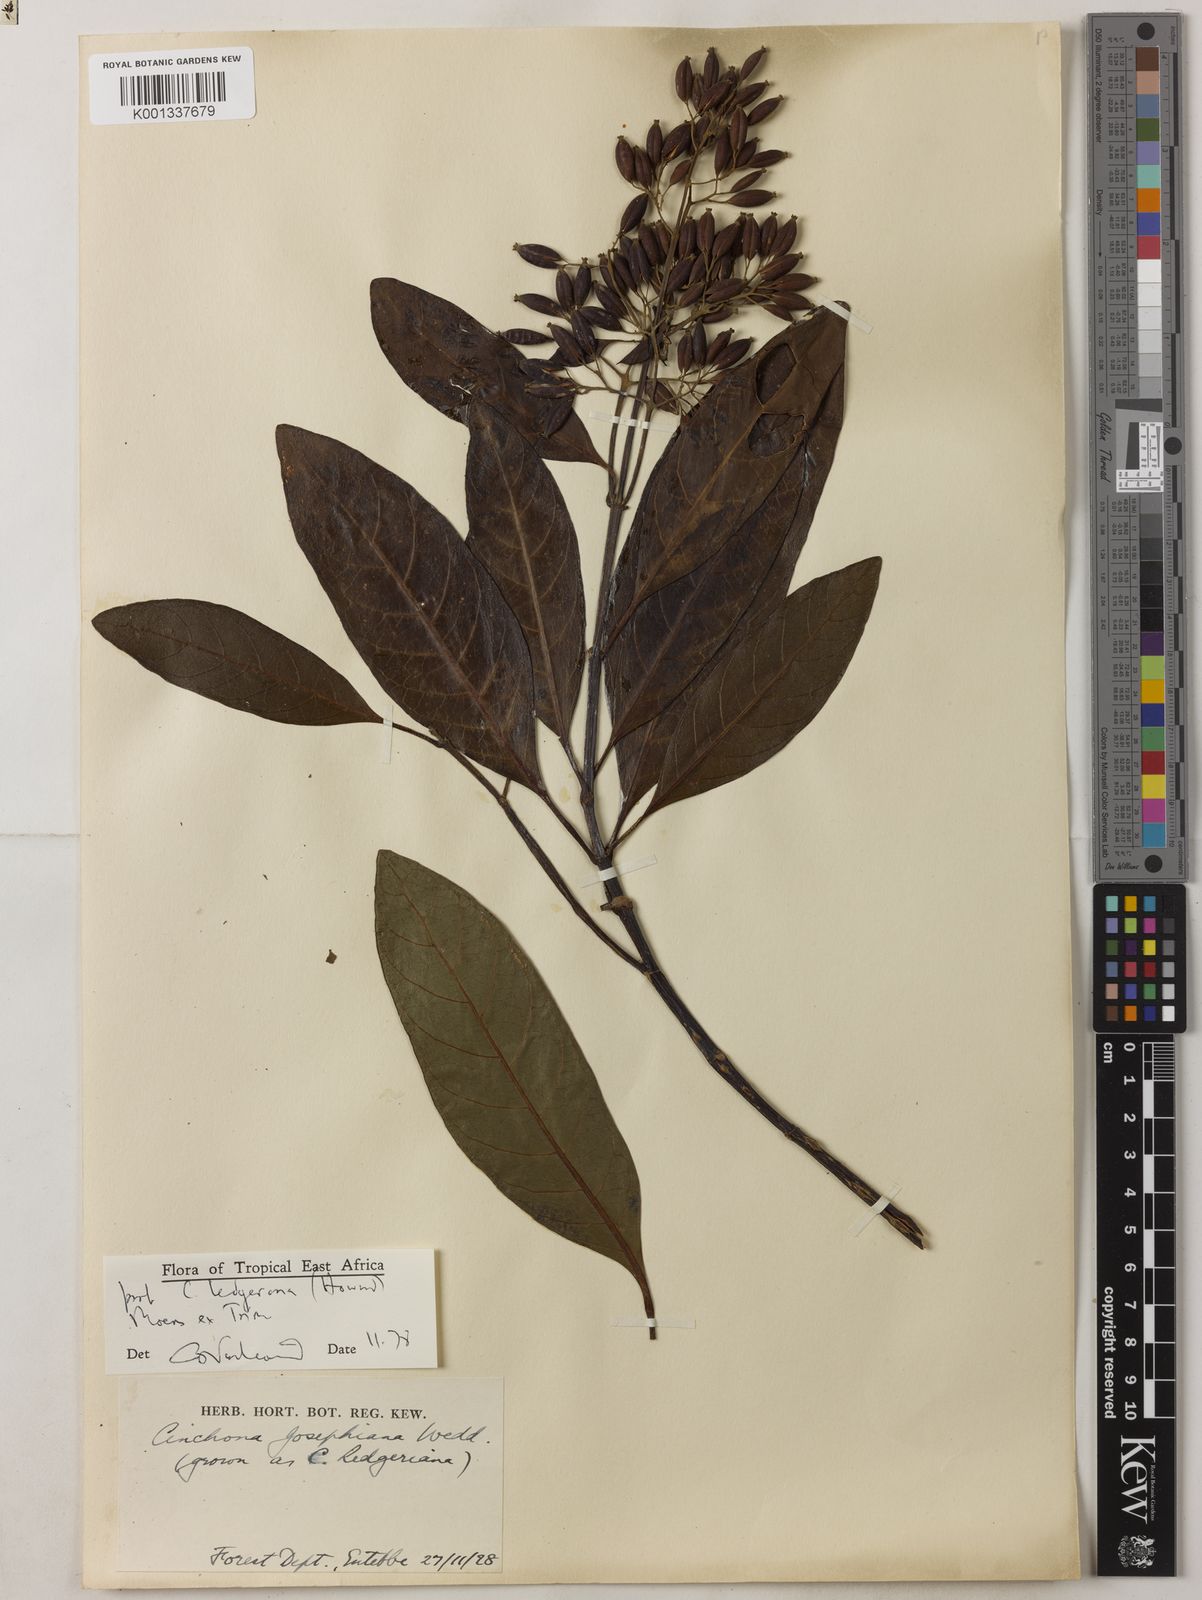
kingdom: Plantae
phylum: Tracheophyta
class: Magnoliopsida
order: Gentianales
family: Rubiaceae
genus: Cinchona
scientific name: Cinchona officinalis
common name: Lojabark
